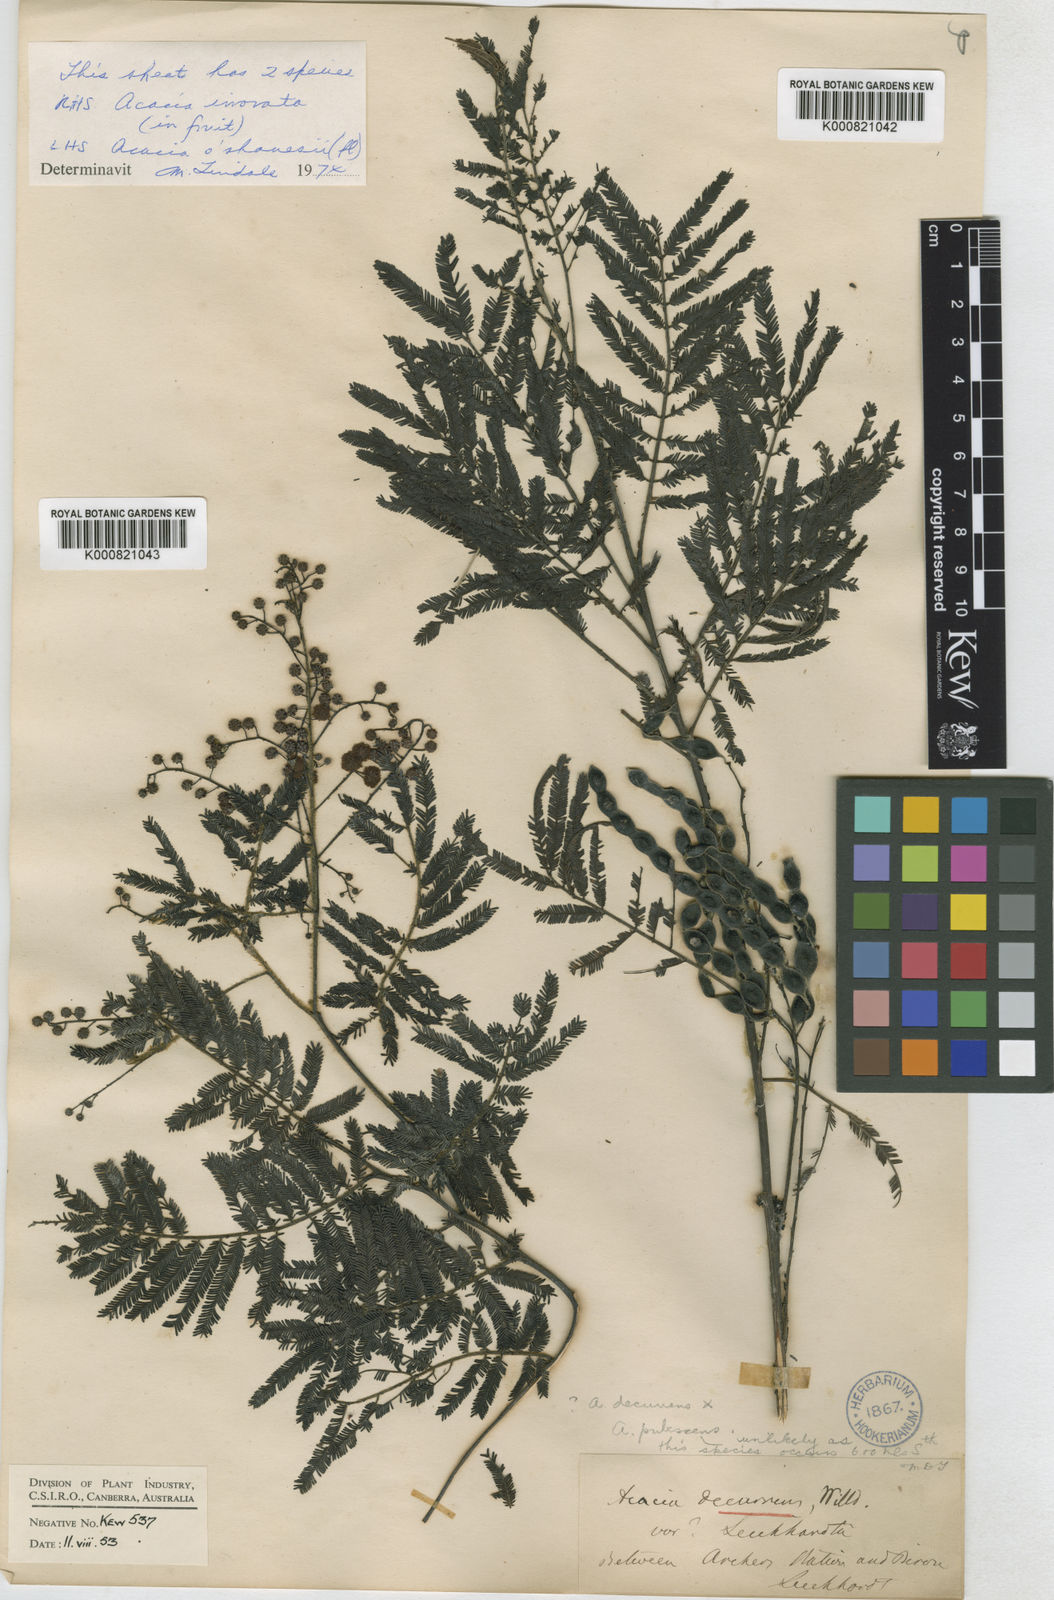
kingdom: Plantae
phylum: Tracheophyta
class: Magnoliopsida
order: Fabales
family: Fabaceae
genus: Acacia
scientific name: Acacia oshanesii
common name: Corkwood wattle
